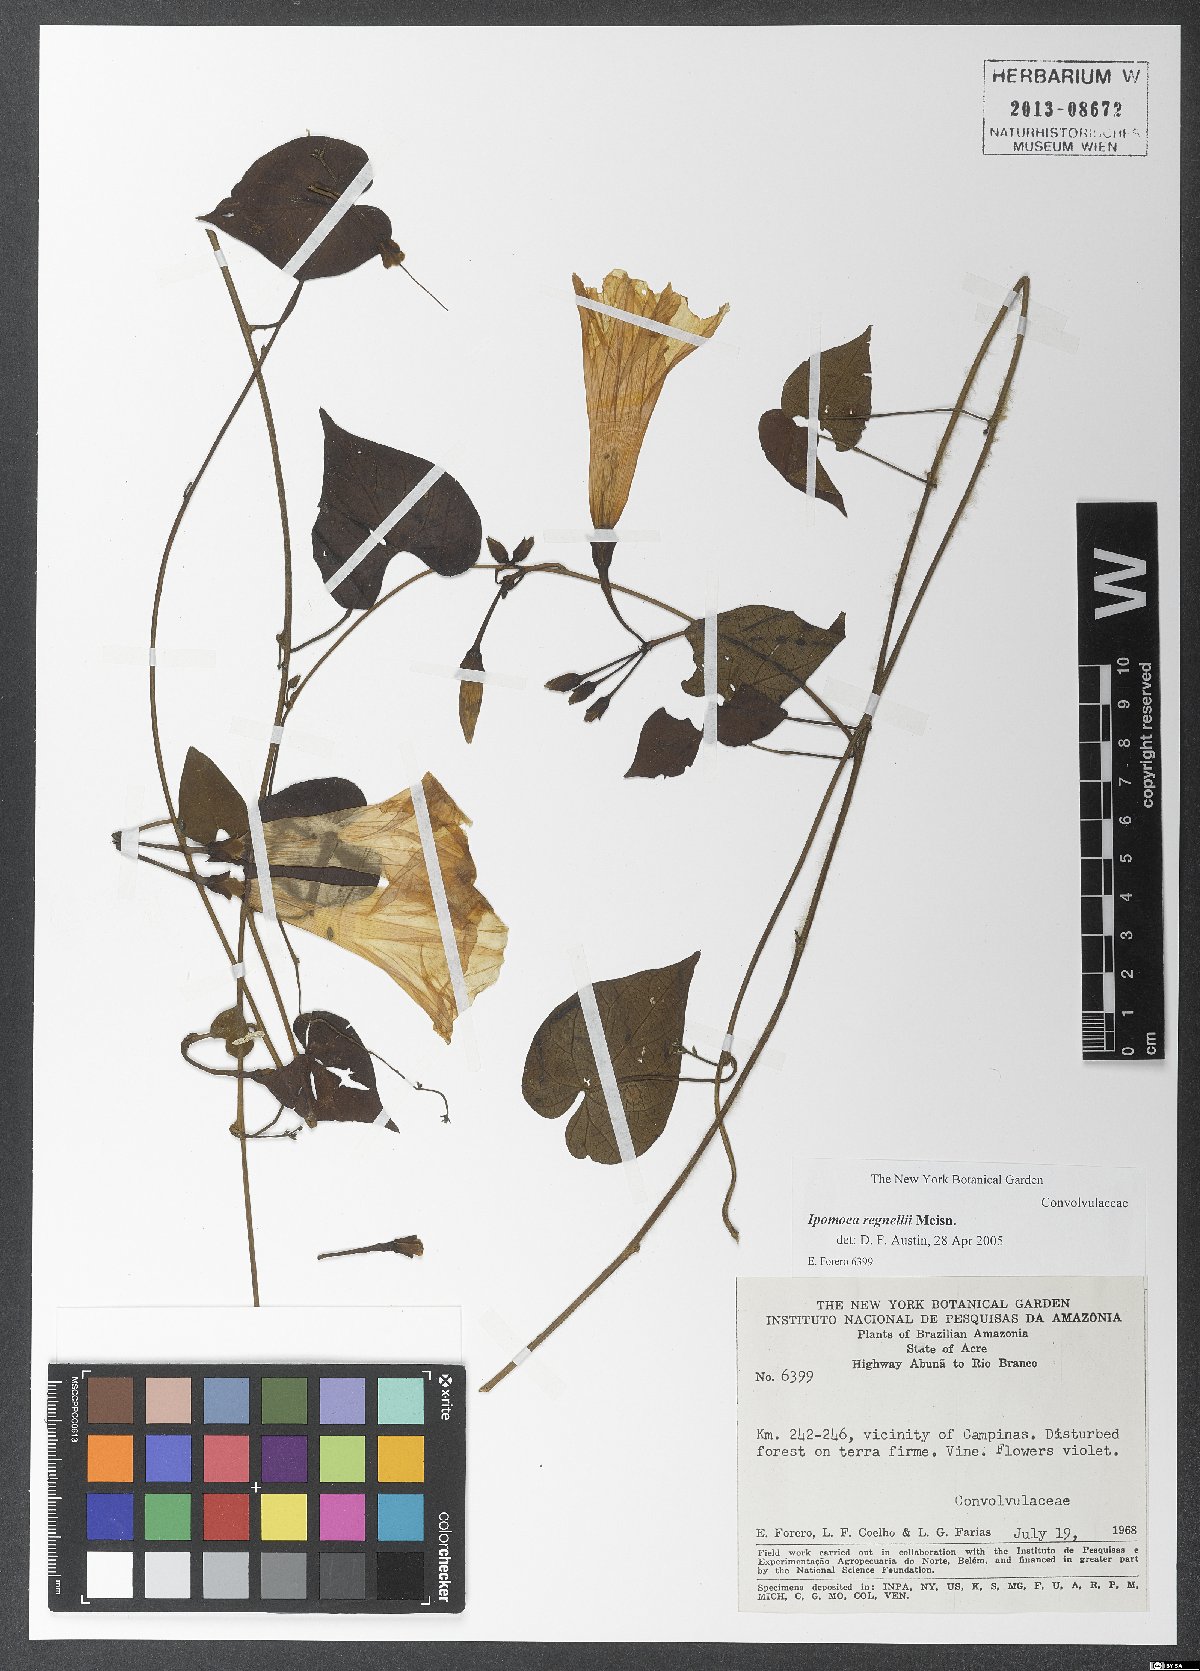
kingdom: Plantae
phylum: Tracheophyta
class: Magnoliopsida
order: Solanales
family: Convolvulaceae
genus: Ipomoea
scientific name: Ipomoea regnellii
